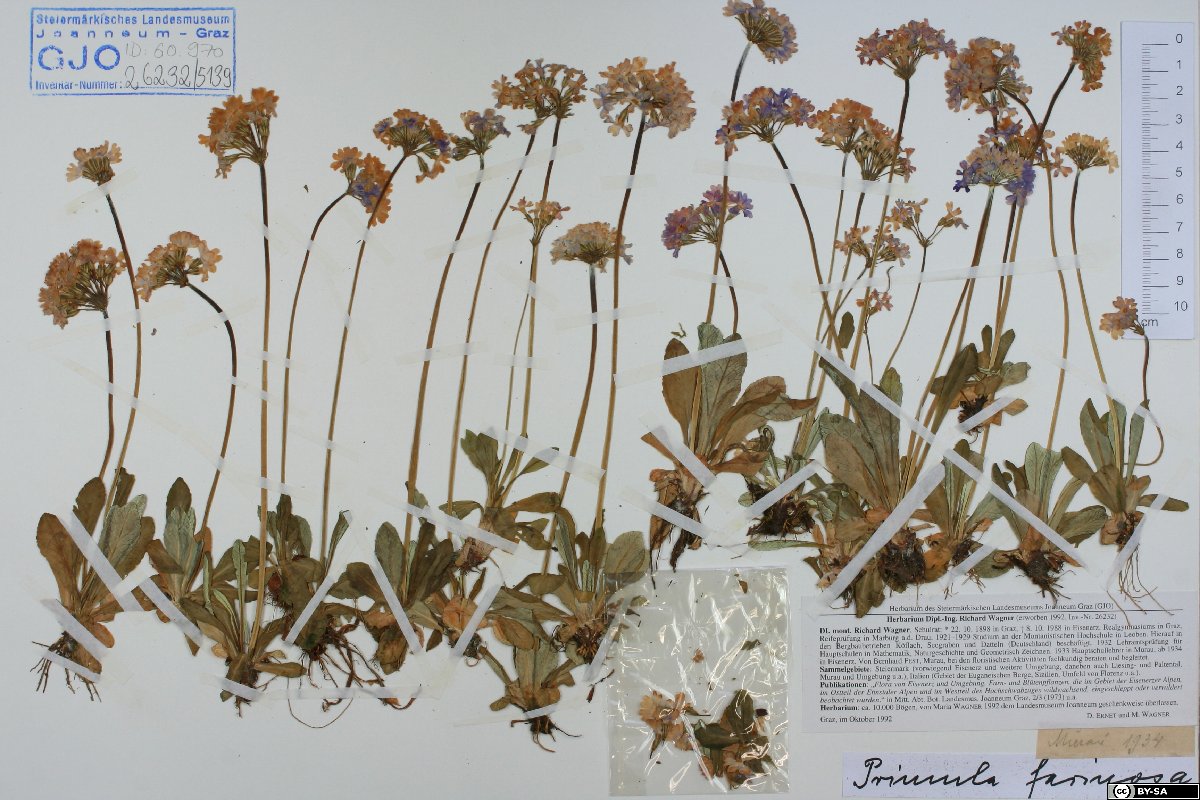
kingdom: Plantae
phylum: Tracheophyta
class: Magnoliopsida
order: Ericales
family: Primulaceae
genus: Primula
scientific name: Primula farinosa
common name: Bird's-eye primrose
